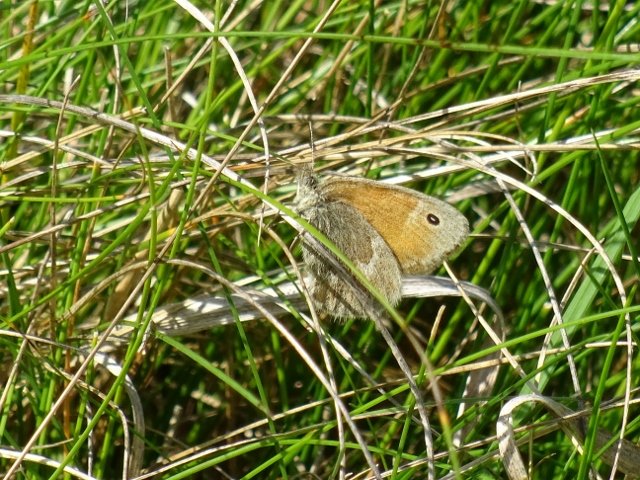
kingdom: Animalia
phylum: Arthropoda
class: Insecta
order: Lepidoptera
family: Nymphalidae
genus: Coenonympha
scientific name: Coenonympha tullia
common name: Large Heath
